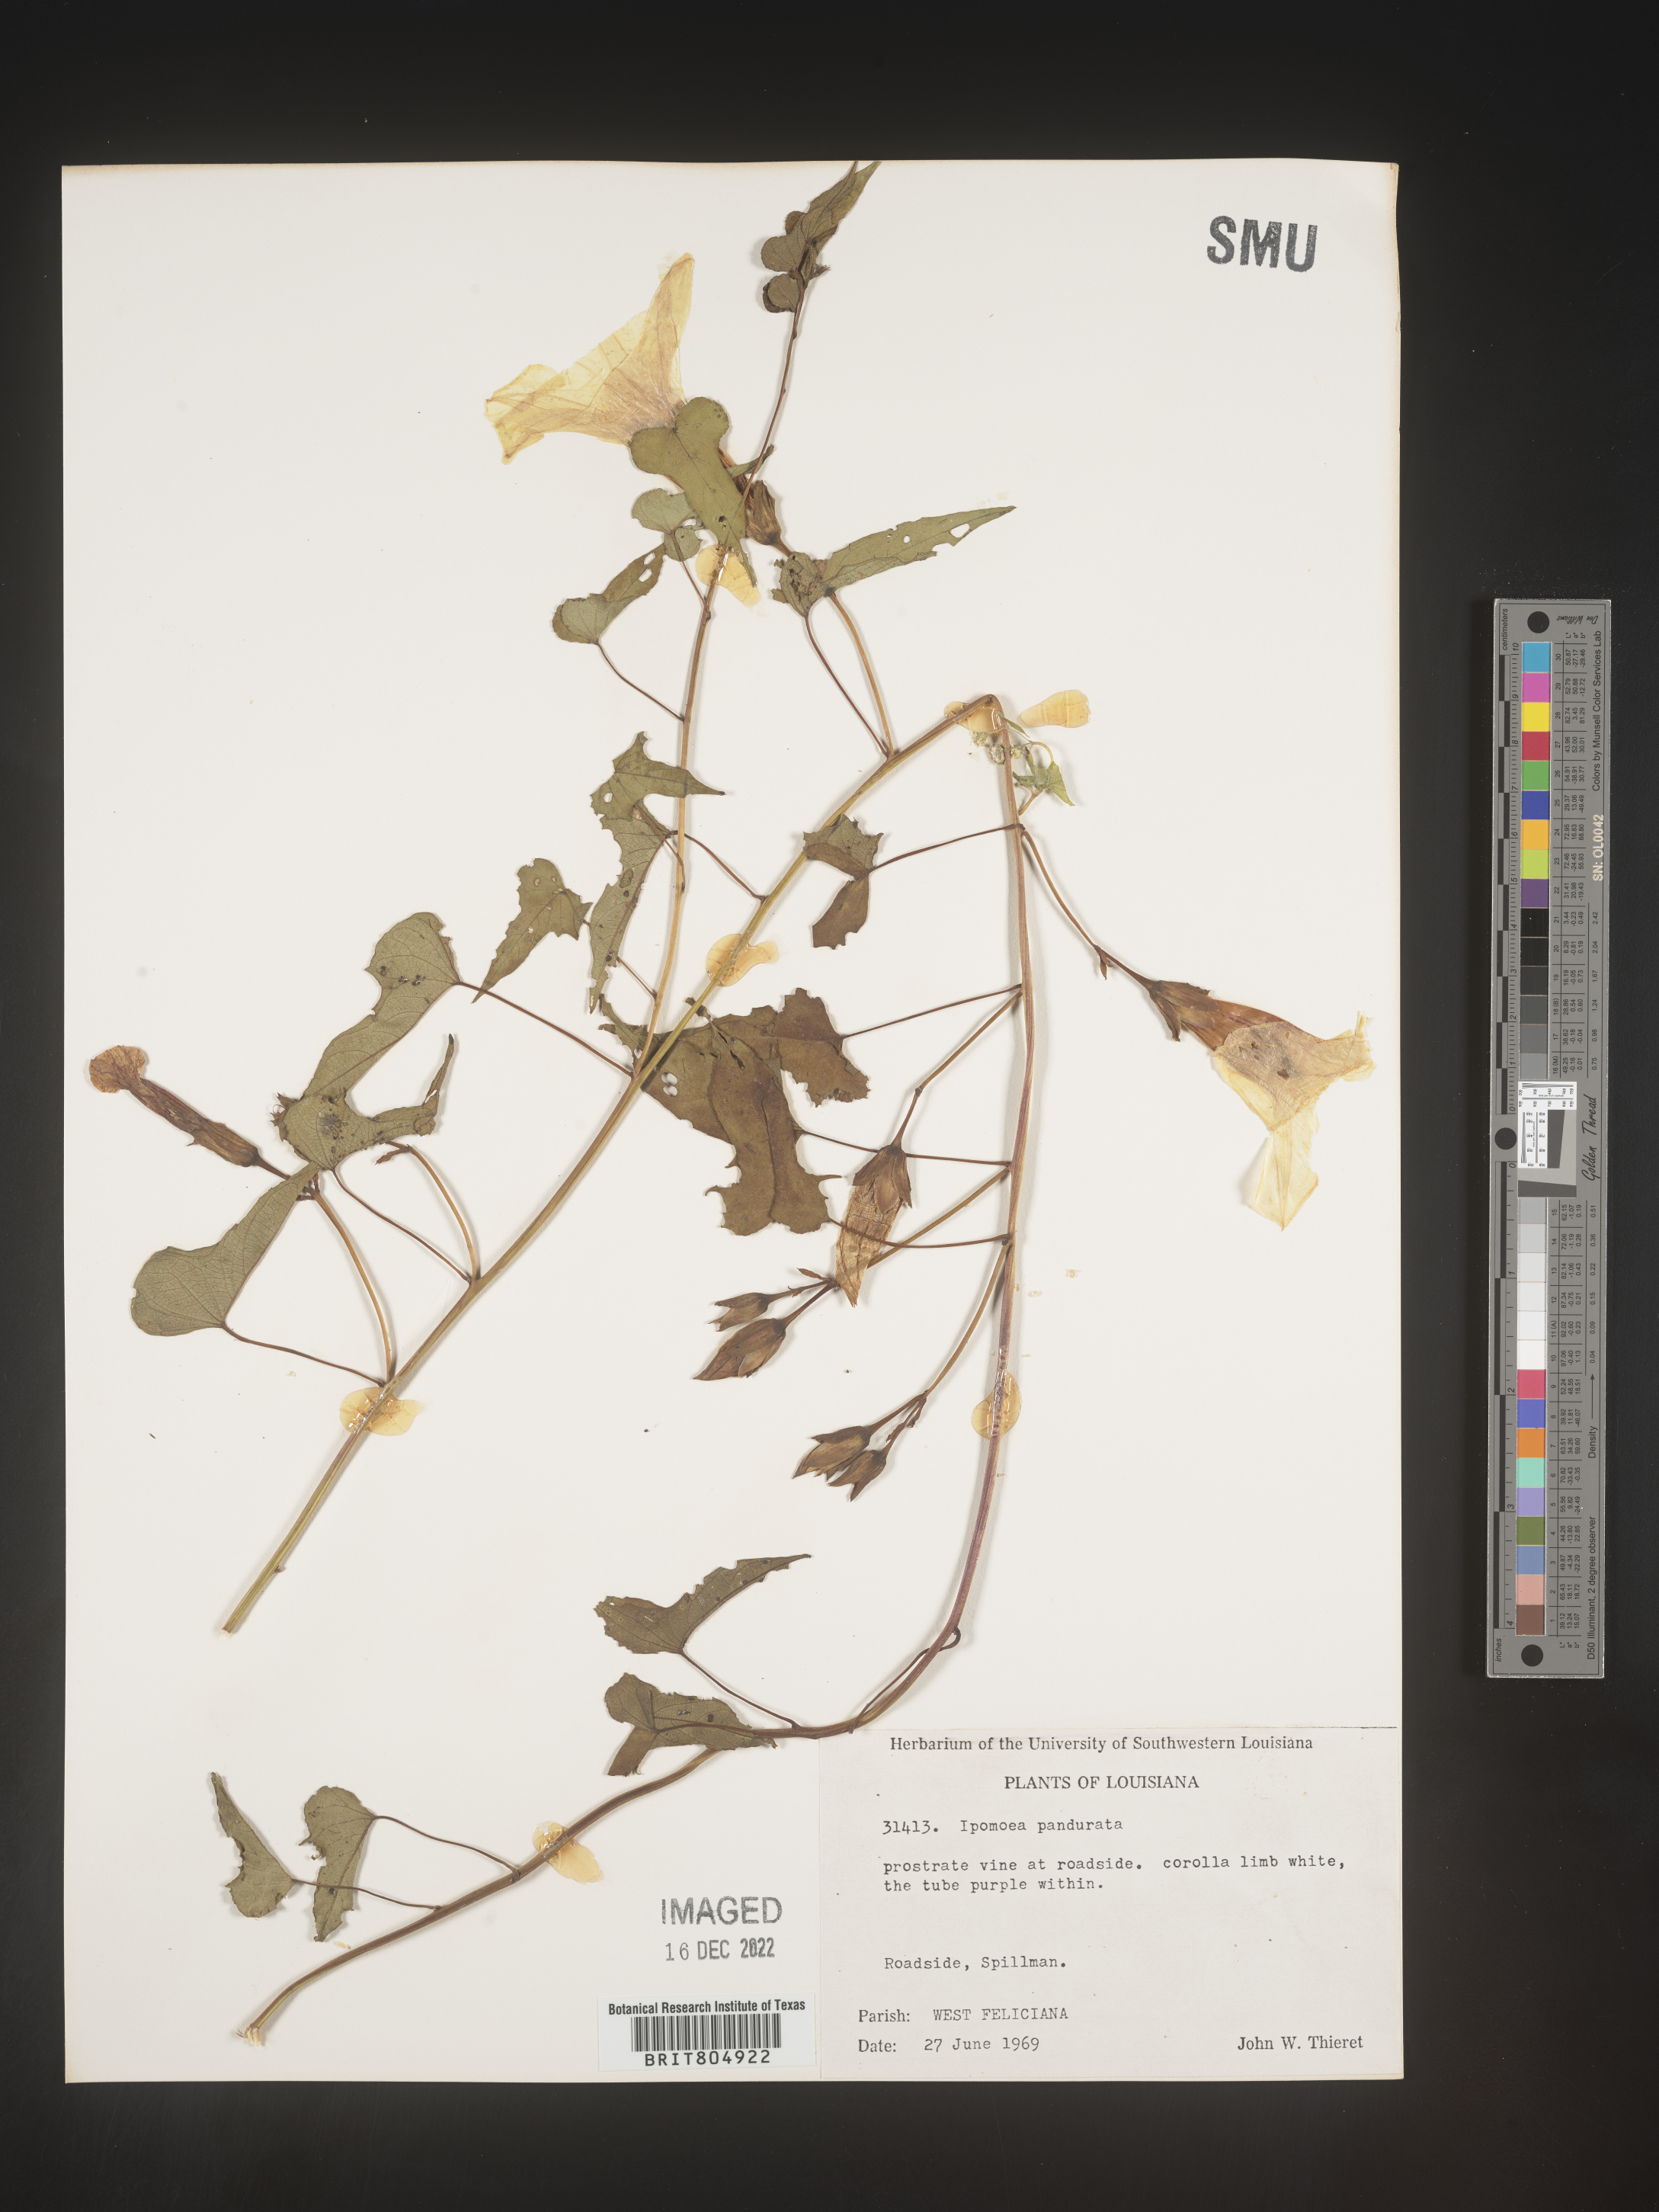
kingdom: Plantae
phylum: Tracheophyta
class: Magnoliopsida
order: Solanales
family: Convolvulaceae
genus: Ipomoea
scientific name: Ipomoea pandurata
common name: Man-of-the-earth
